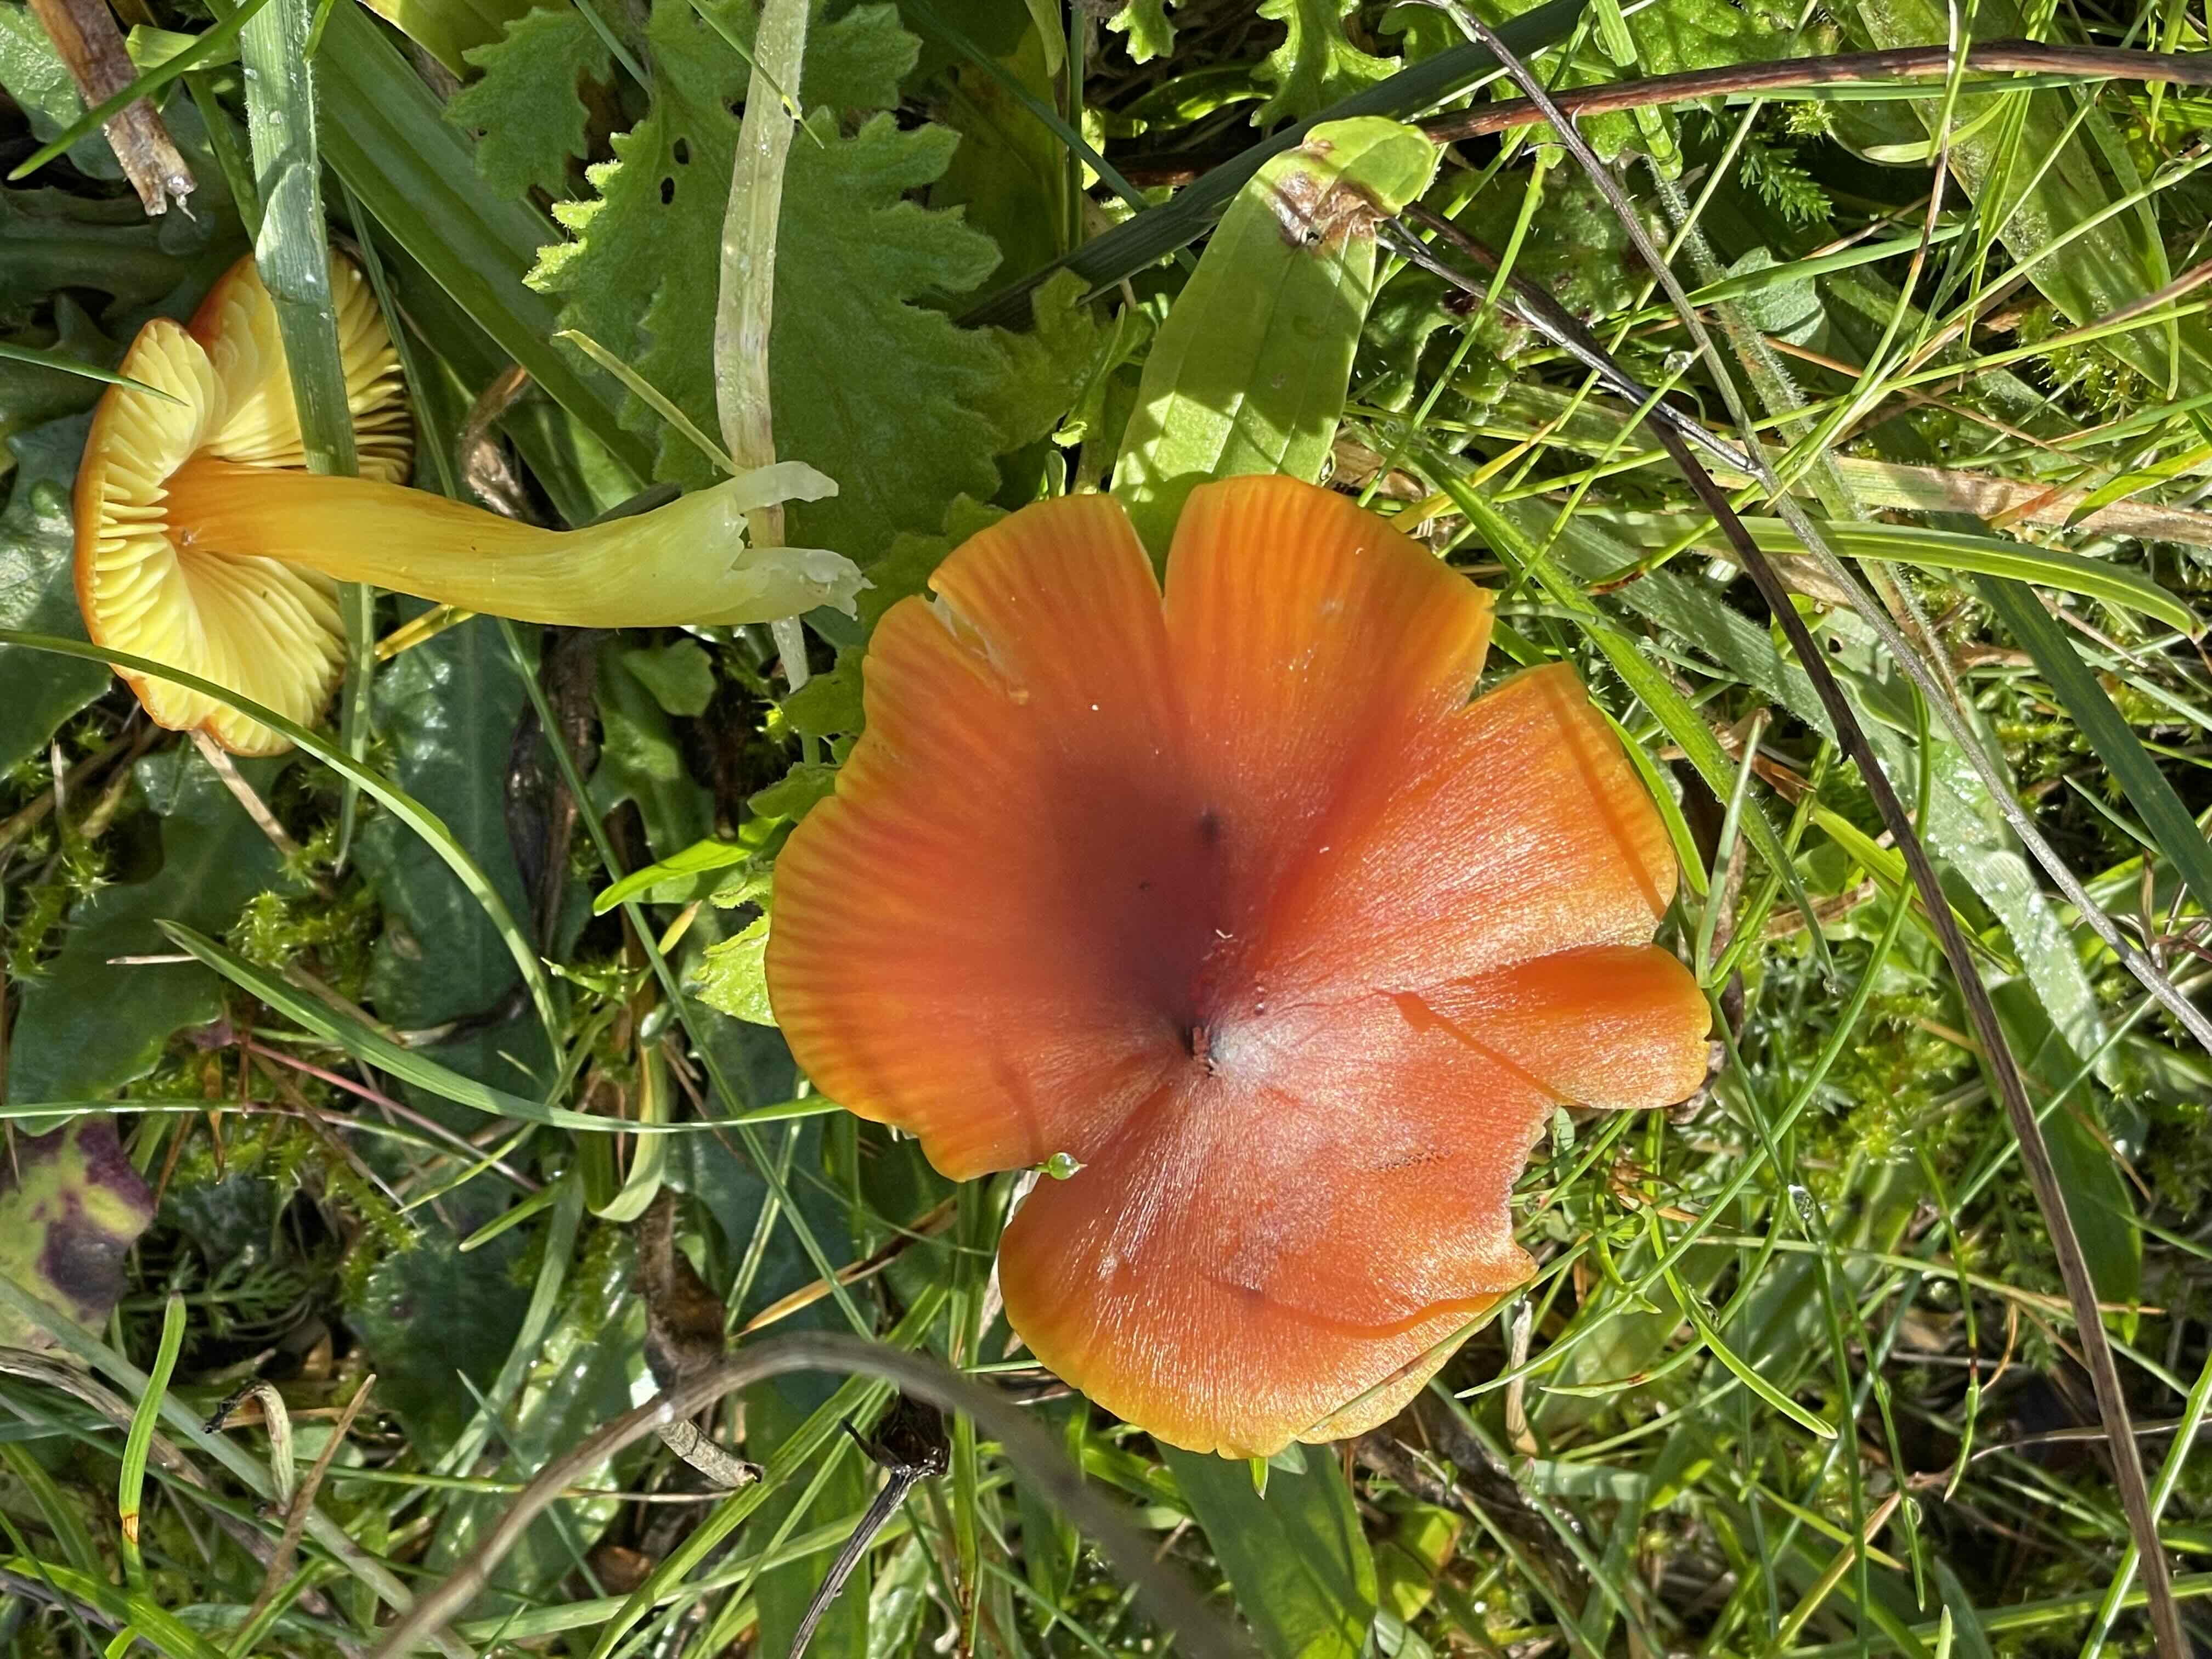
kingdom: Fungi
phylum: Basidiomycota
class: Agaricomycetes
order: Agaricales
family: Hygrophoraceae
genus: Hygrocybe
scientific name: Hygrocybe conica
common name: kegle-vokshat
